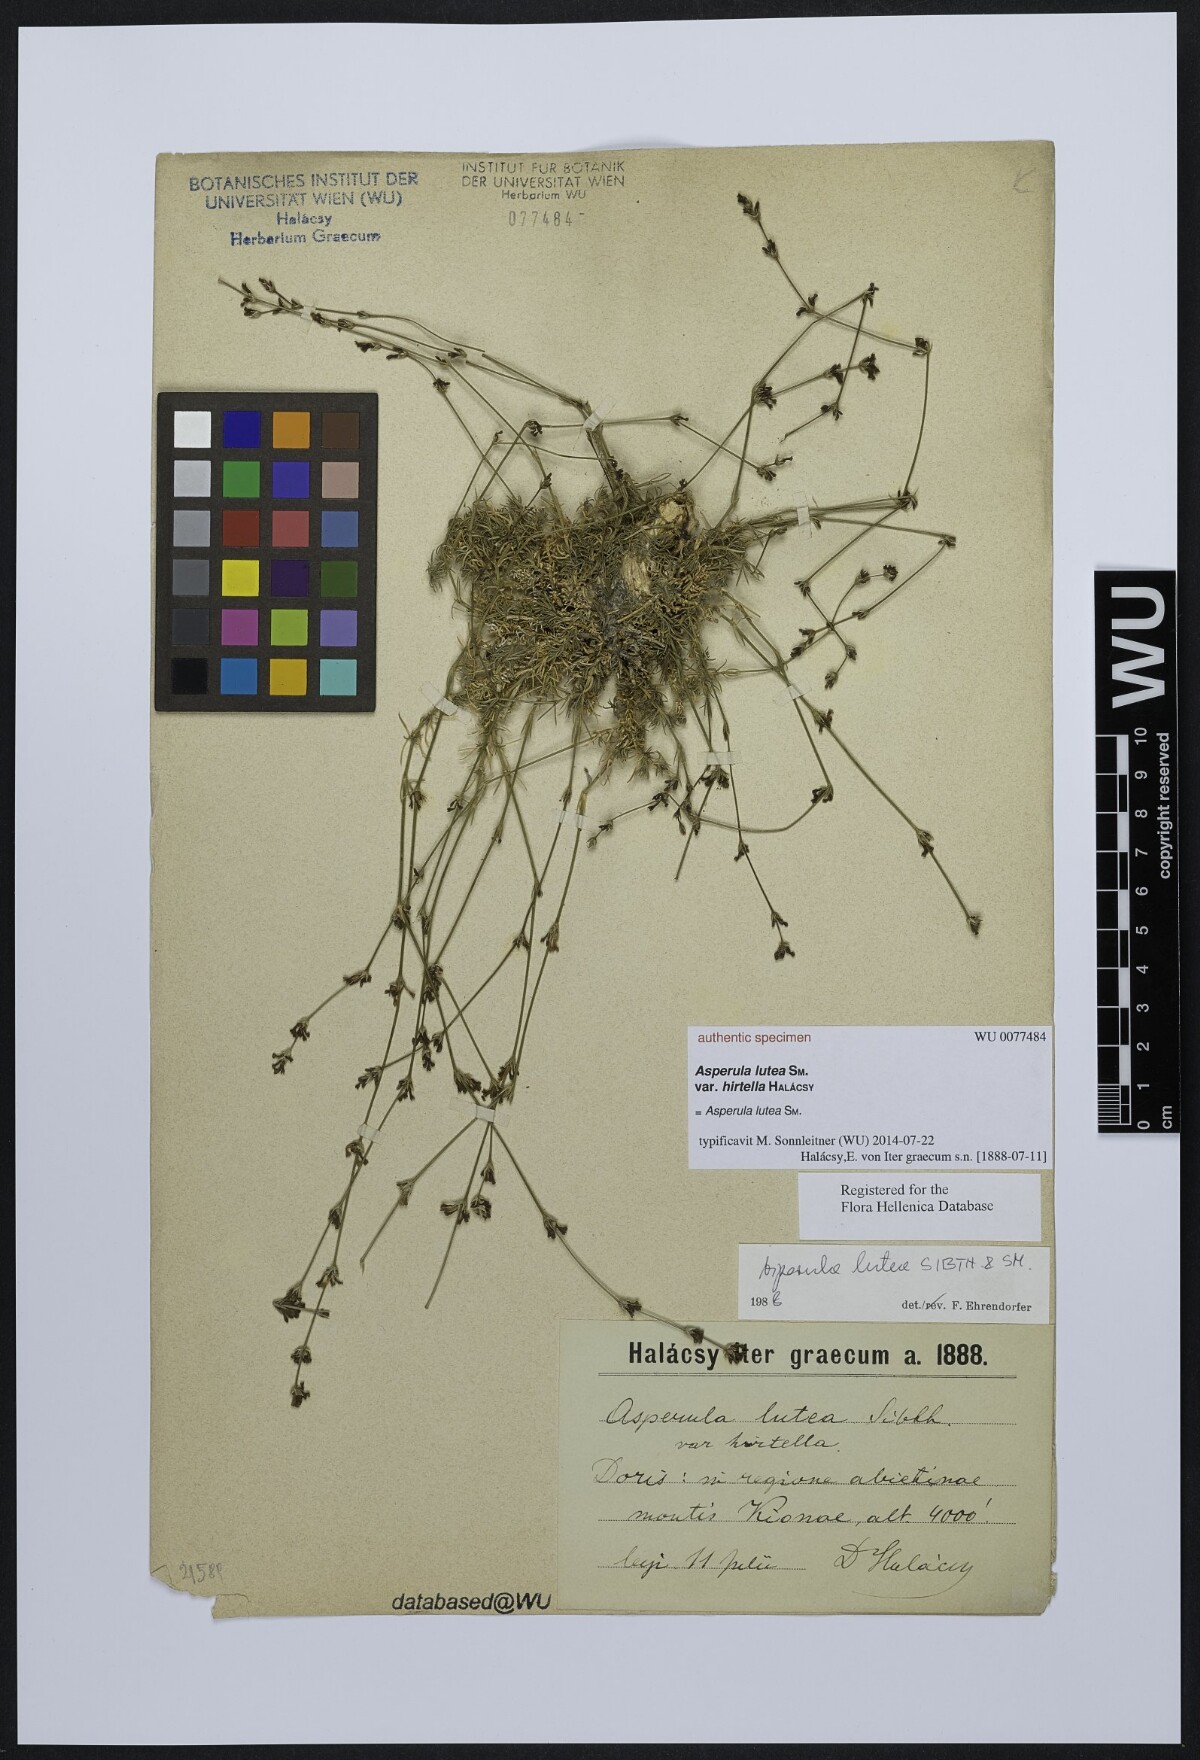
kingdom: Plantae
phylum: Tracheophyta
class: Magnoliopsida
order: Gentianales
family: Rubiaceae
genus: Cynanchica
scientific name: Cynanchica lutea
